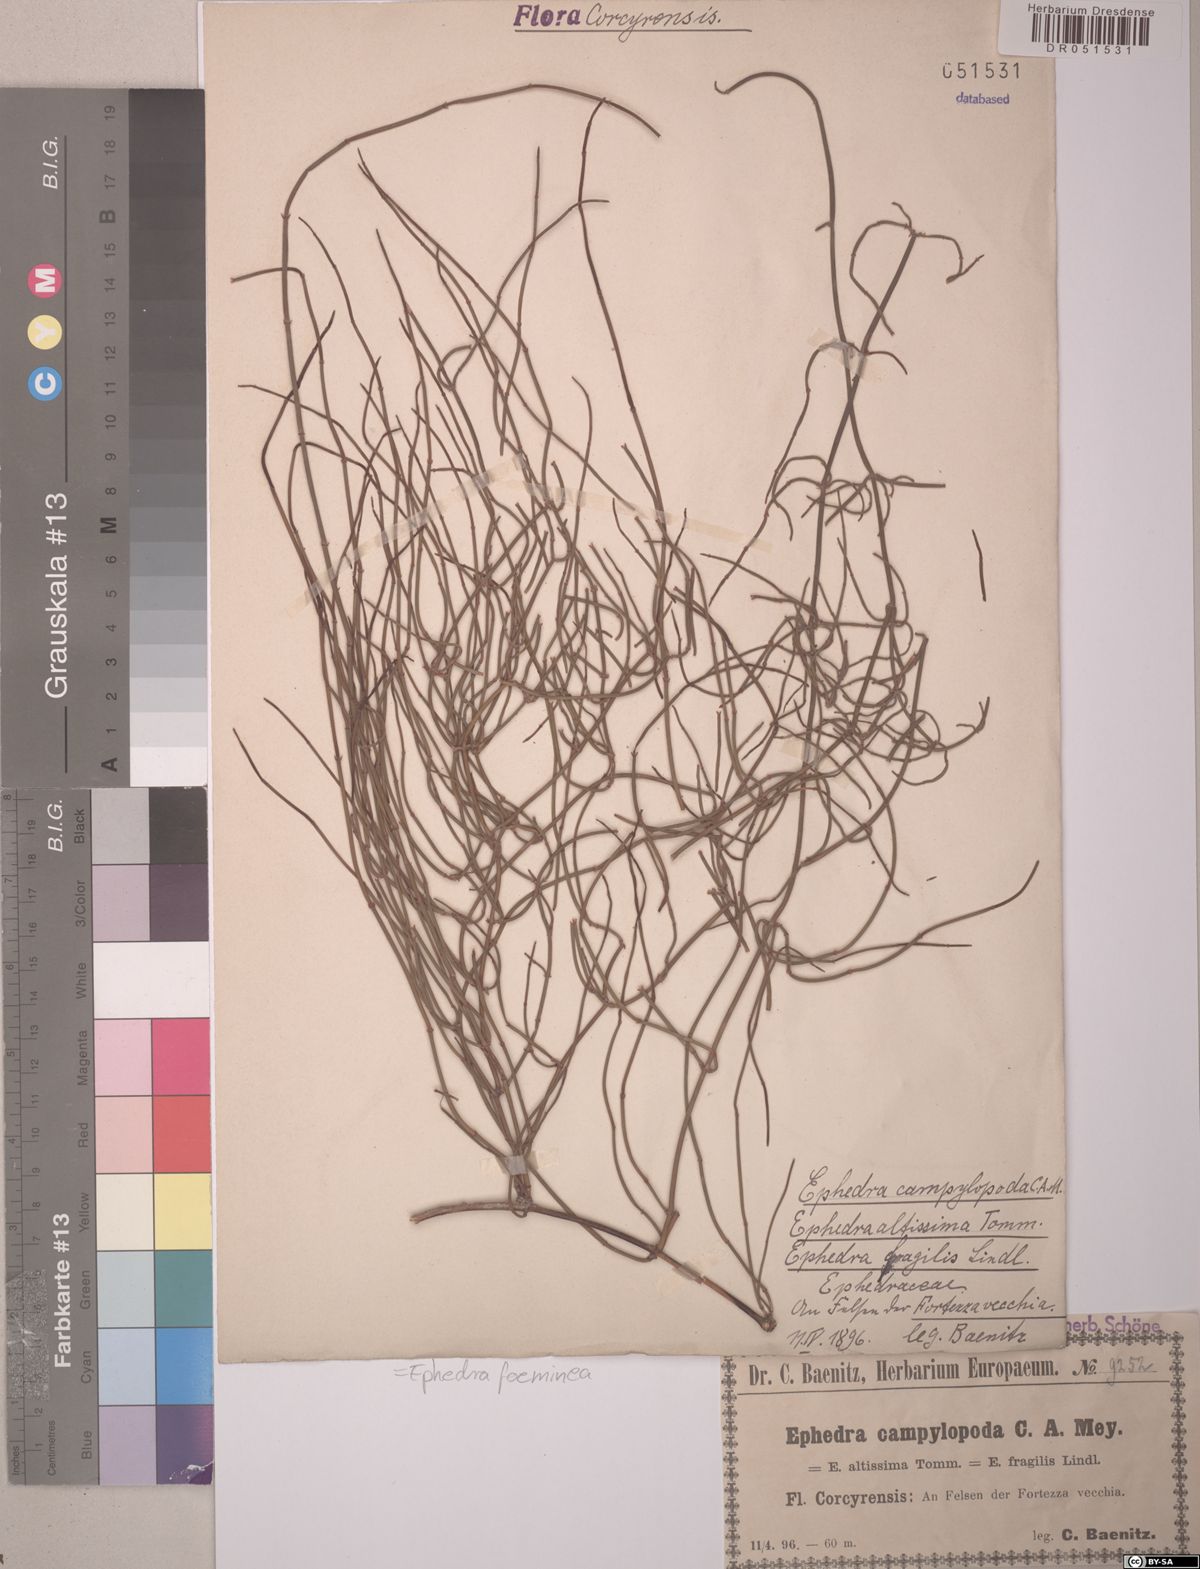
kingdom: Plantae
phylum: Tracheophyta
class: Gnetopsida
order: Ephedrales
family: Ephedraceae
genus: Ephedra
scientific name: Ephedra foeminea
